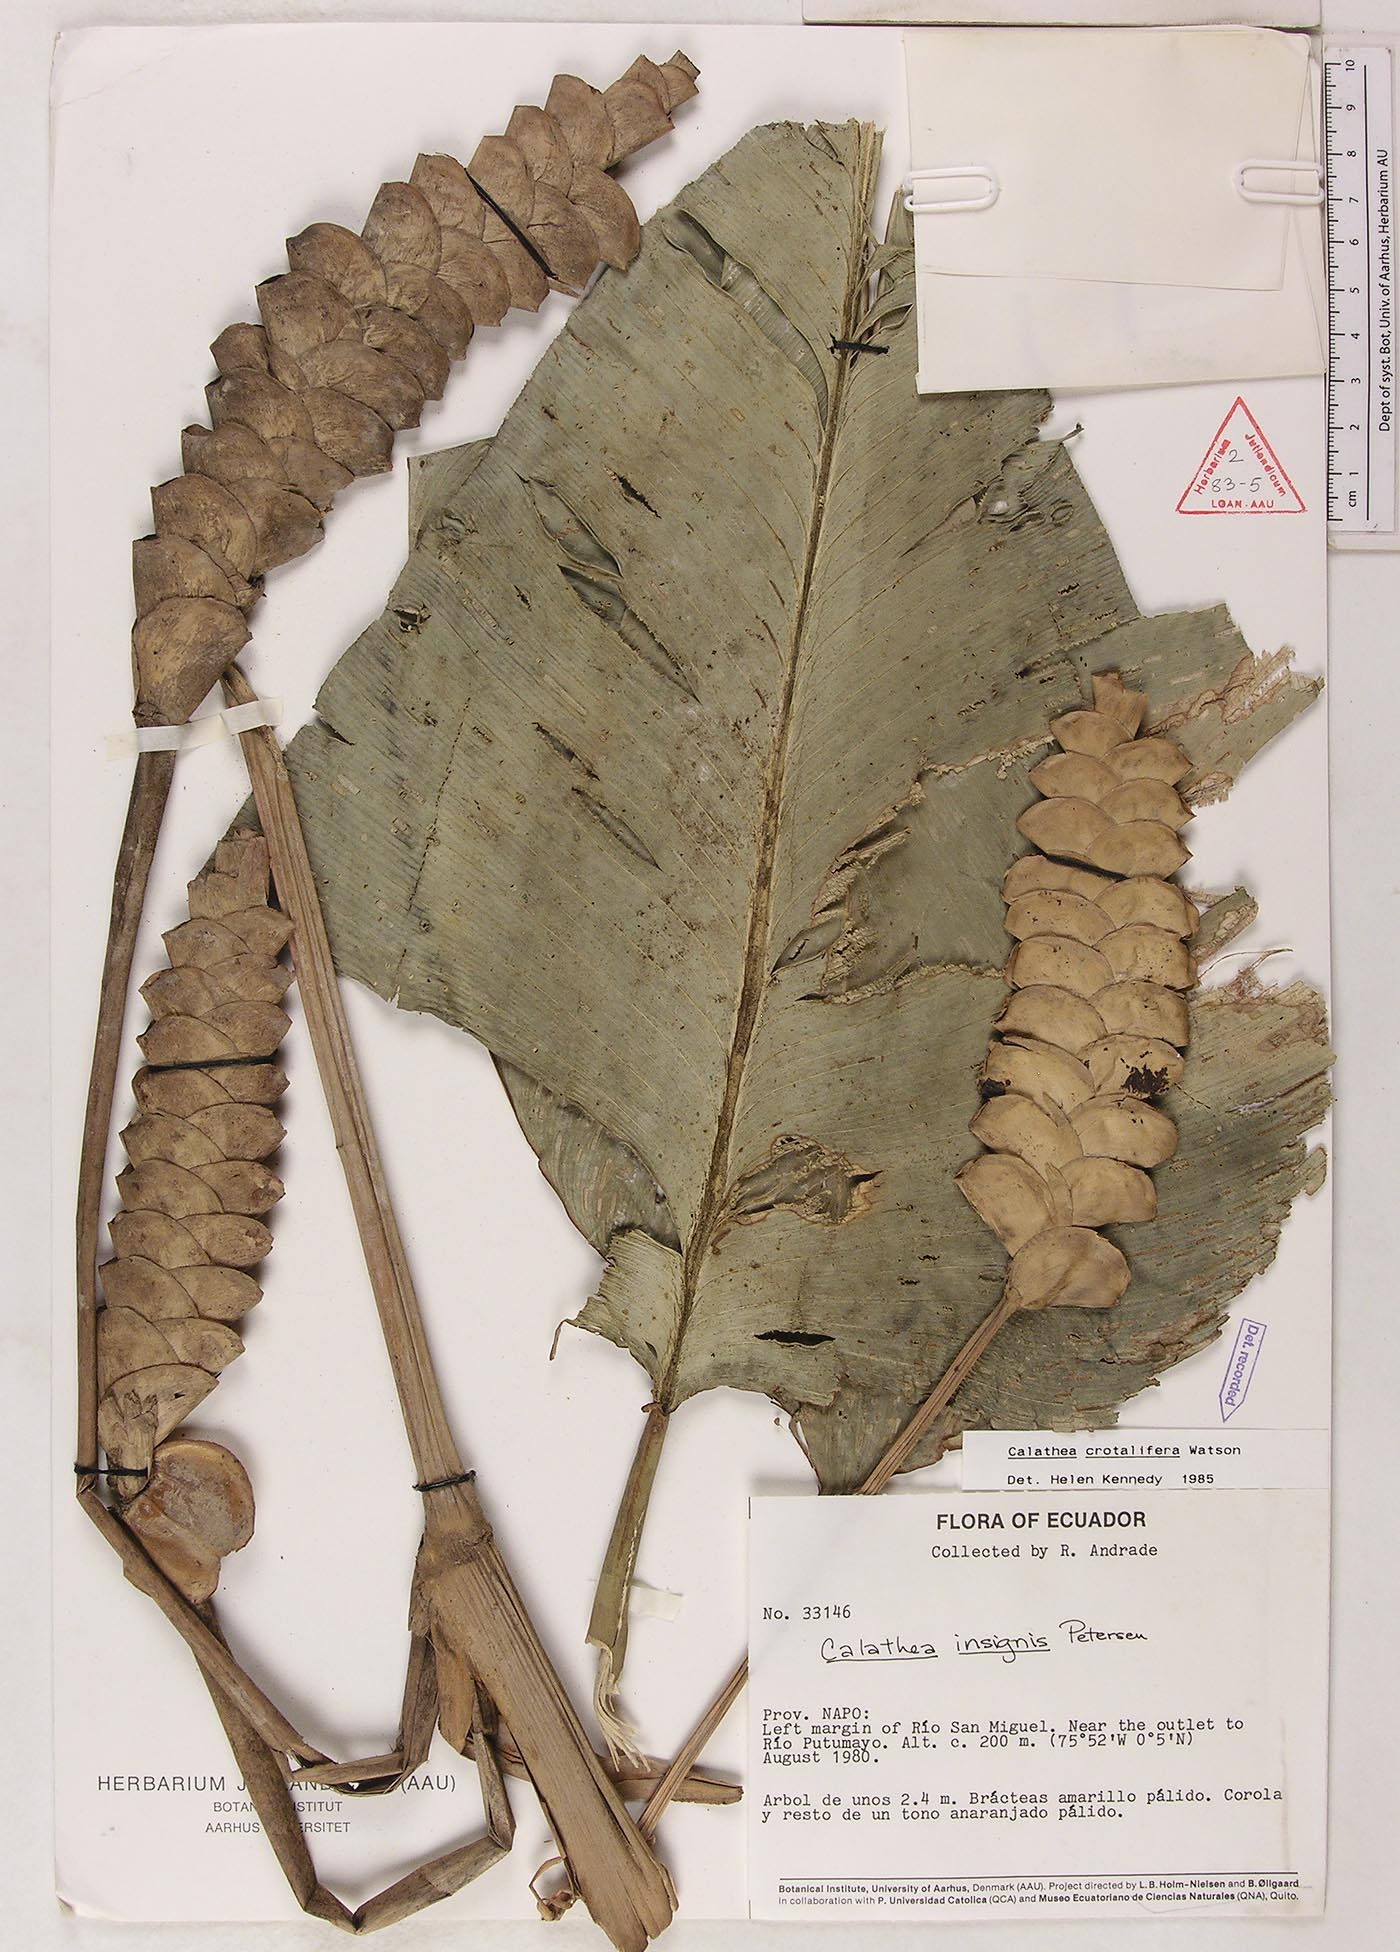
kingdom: Plantae
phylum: Tracheophyta
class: Liliopsida
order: Zingiberales
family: Marantaceae
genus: Calathea
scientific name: Calathea crotalifera
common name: Rattlesnake plant
